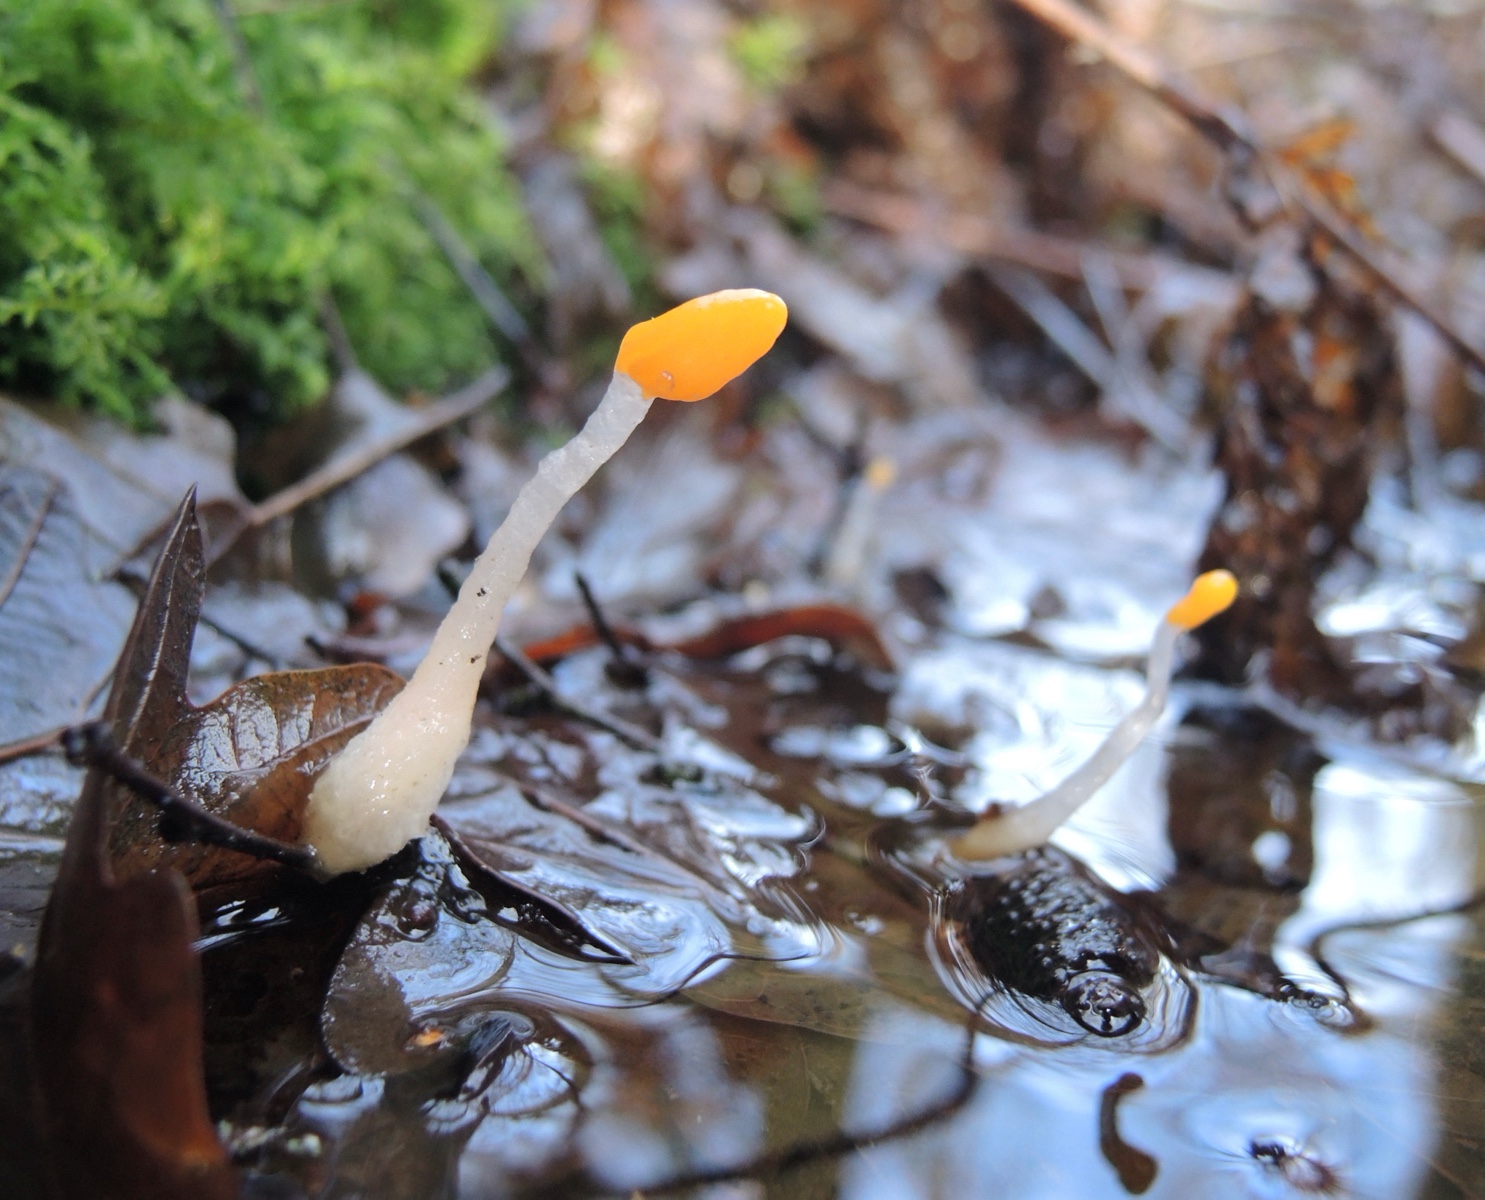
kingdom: Fungi
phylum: Ascomycota
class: Leotiomycetes
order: Helotiales
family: Cenangiaceae
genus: Mitrula
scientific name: Mitrula paludosa
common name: gul nøkketunge
